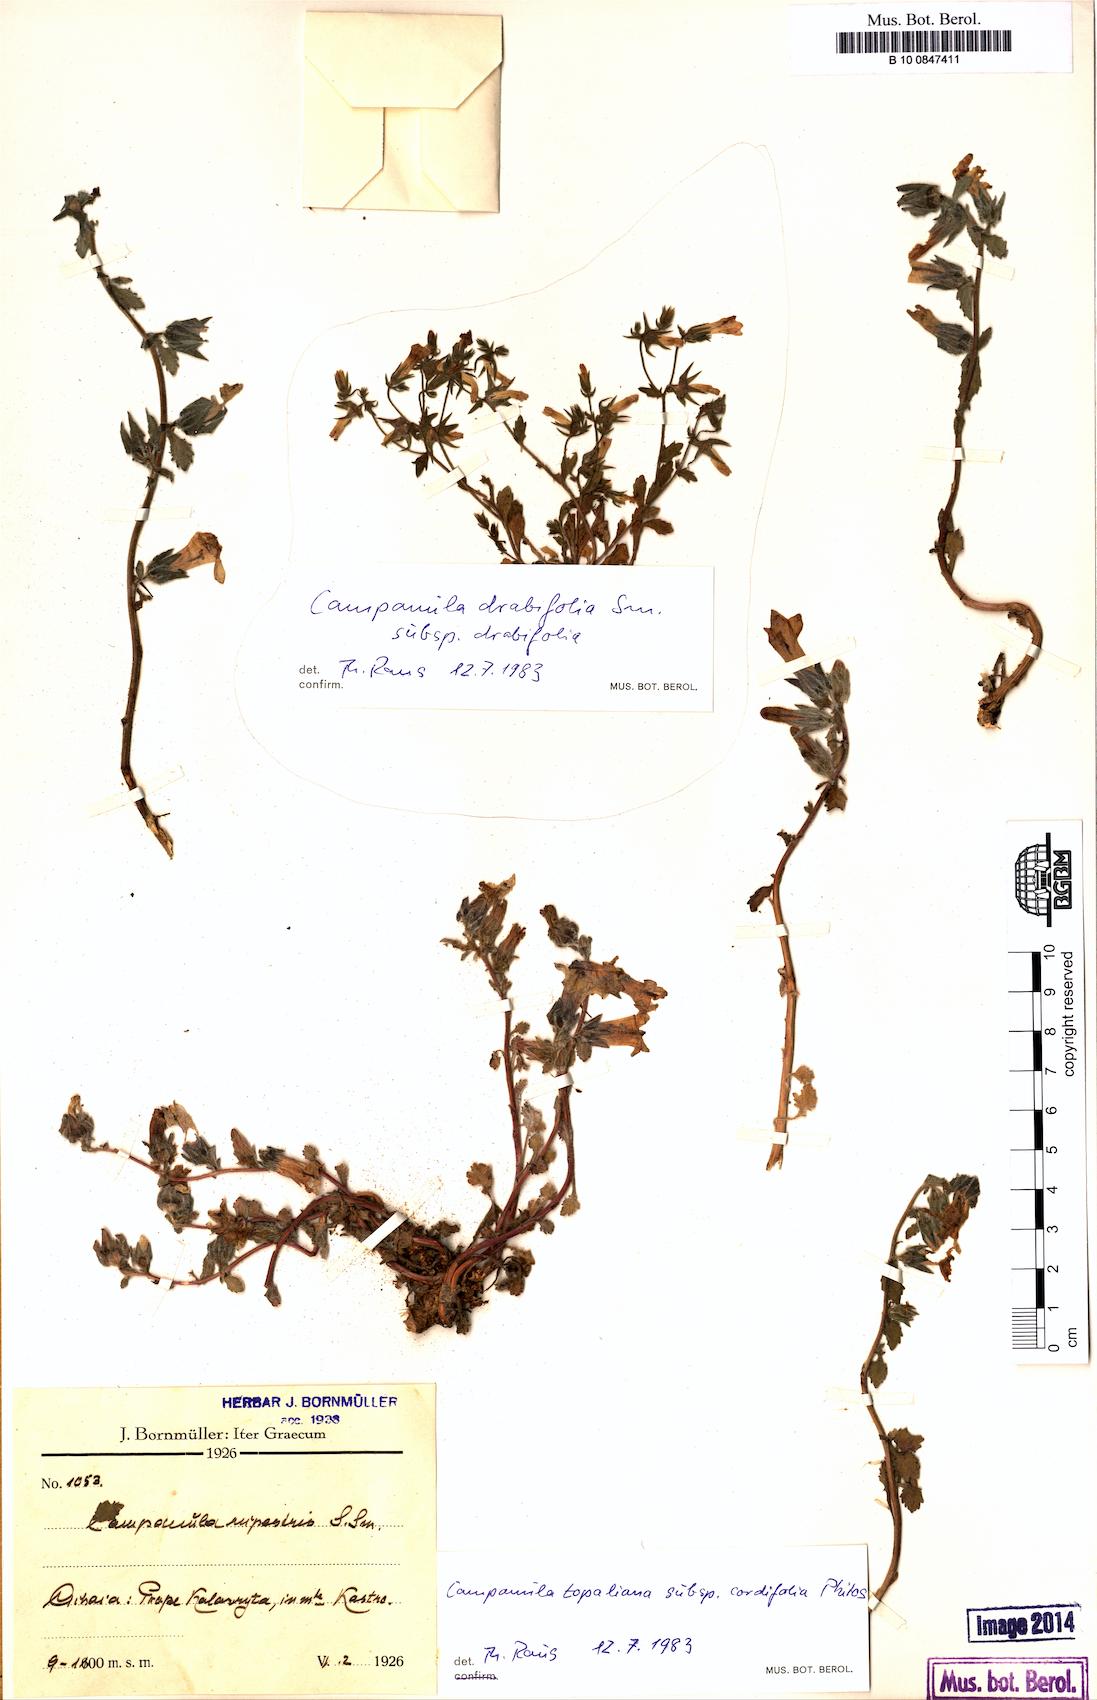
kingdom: Plantae
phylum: Tracheophyta
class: Magnoliopsida
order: Asterales
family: Campanulaceae
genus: Campanula
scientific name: Campanula topaliana
